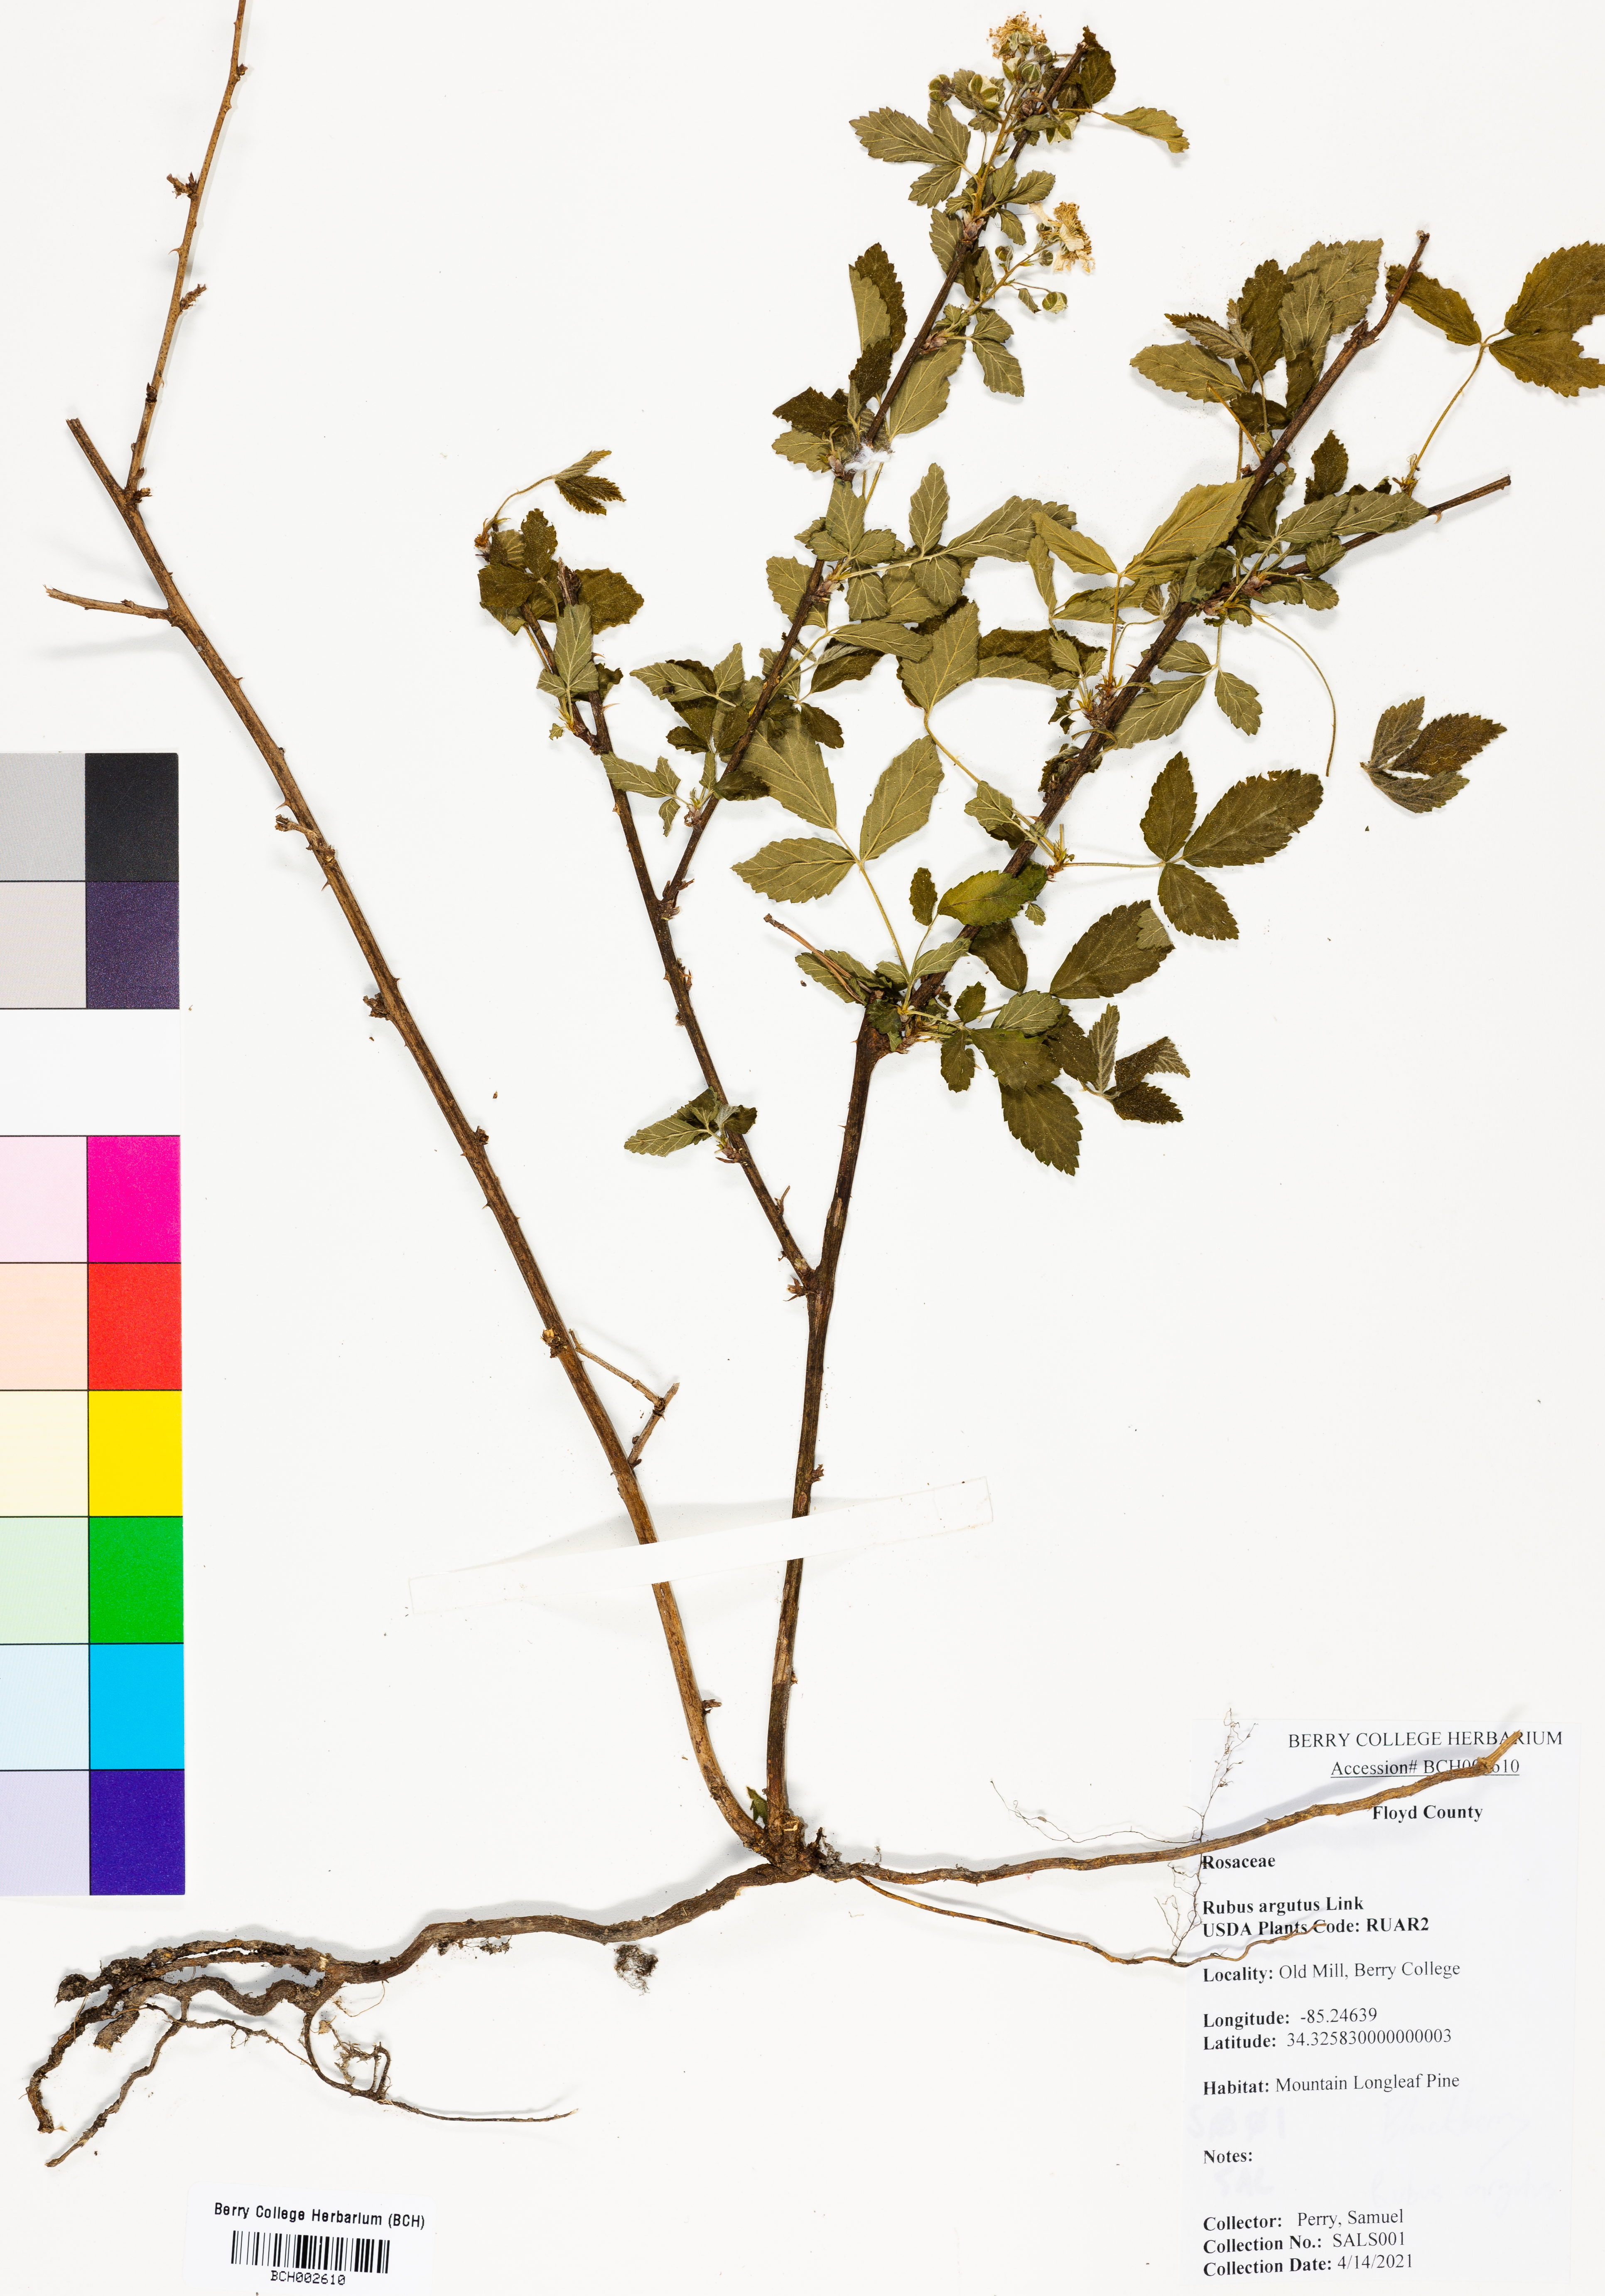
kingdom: Plantae
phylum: Tracheophyta
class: Magnoliopsida
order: Rosales
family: Rosaceae
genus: Rubus
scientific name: Rubus argutus
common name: Sawtooth blackberry
